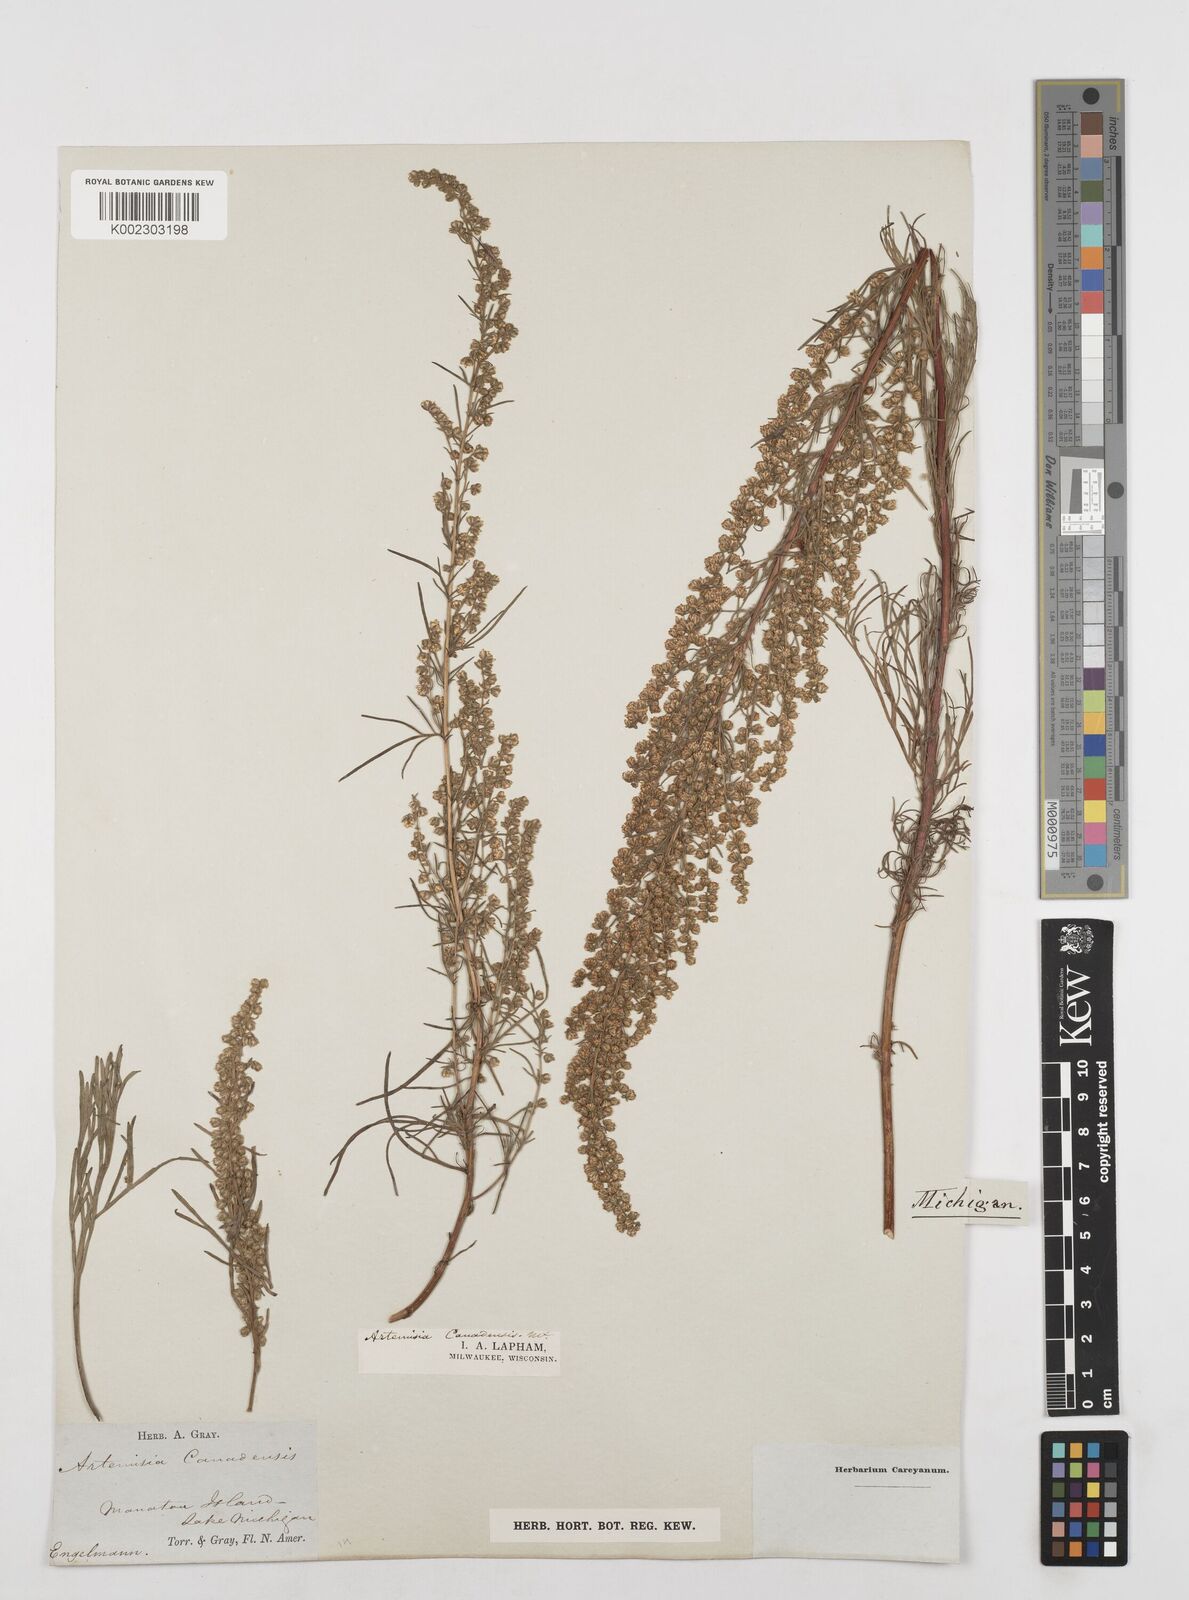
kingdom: Plantae
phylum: Tracheophyta
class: Magnoliopsida
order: Asterales
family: Asteraceae
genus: Artemisia
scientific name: Artemisia campestris
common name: Field wormwood
